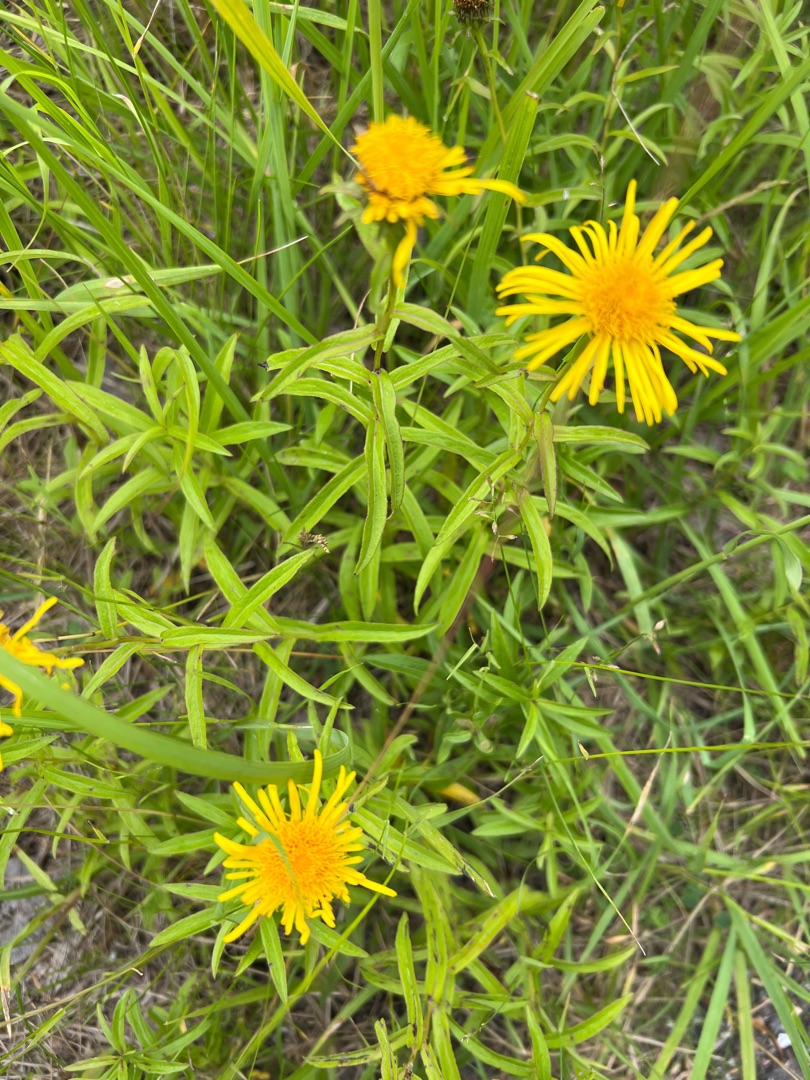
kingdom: Plantae
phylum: Tracheophyta
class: Magnoliopsida
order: Asterales
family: Asteraceae
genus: Pentanema
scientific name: Pentanema salicinum
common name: Pile-alant
